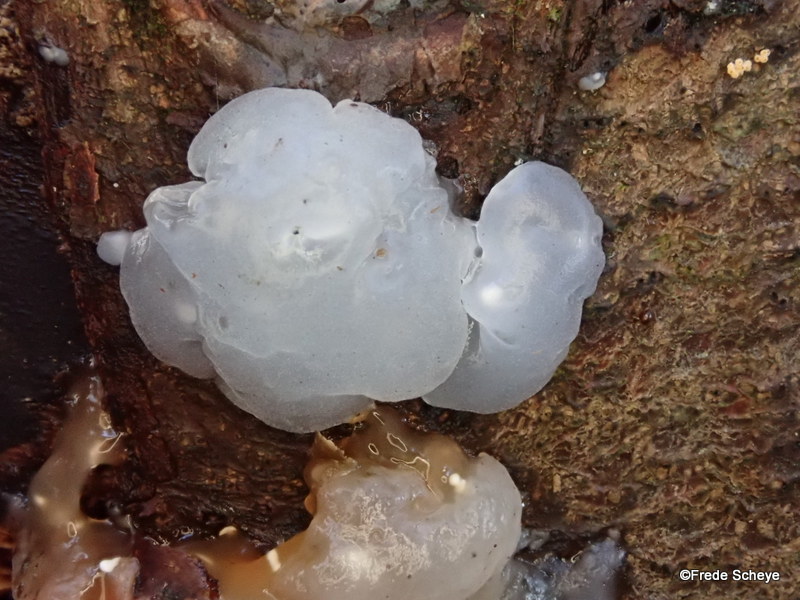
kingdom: Fungi
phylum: Basidiomycota
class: Agaricomycetes
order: Auriculariales
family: Hyaloriaceae
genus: Myxarium
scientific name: Myxarium nucleatum
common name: klar bævretop
